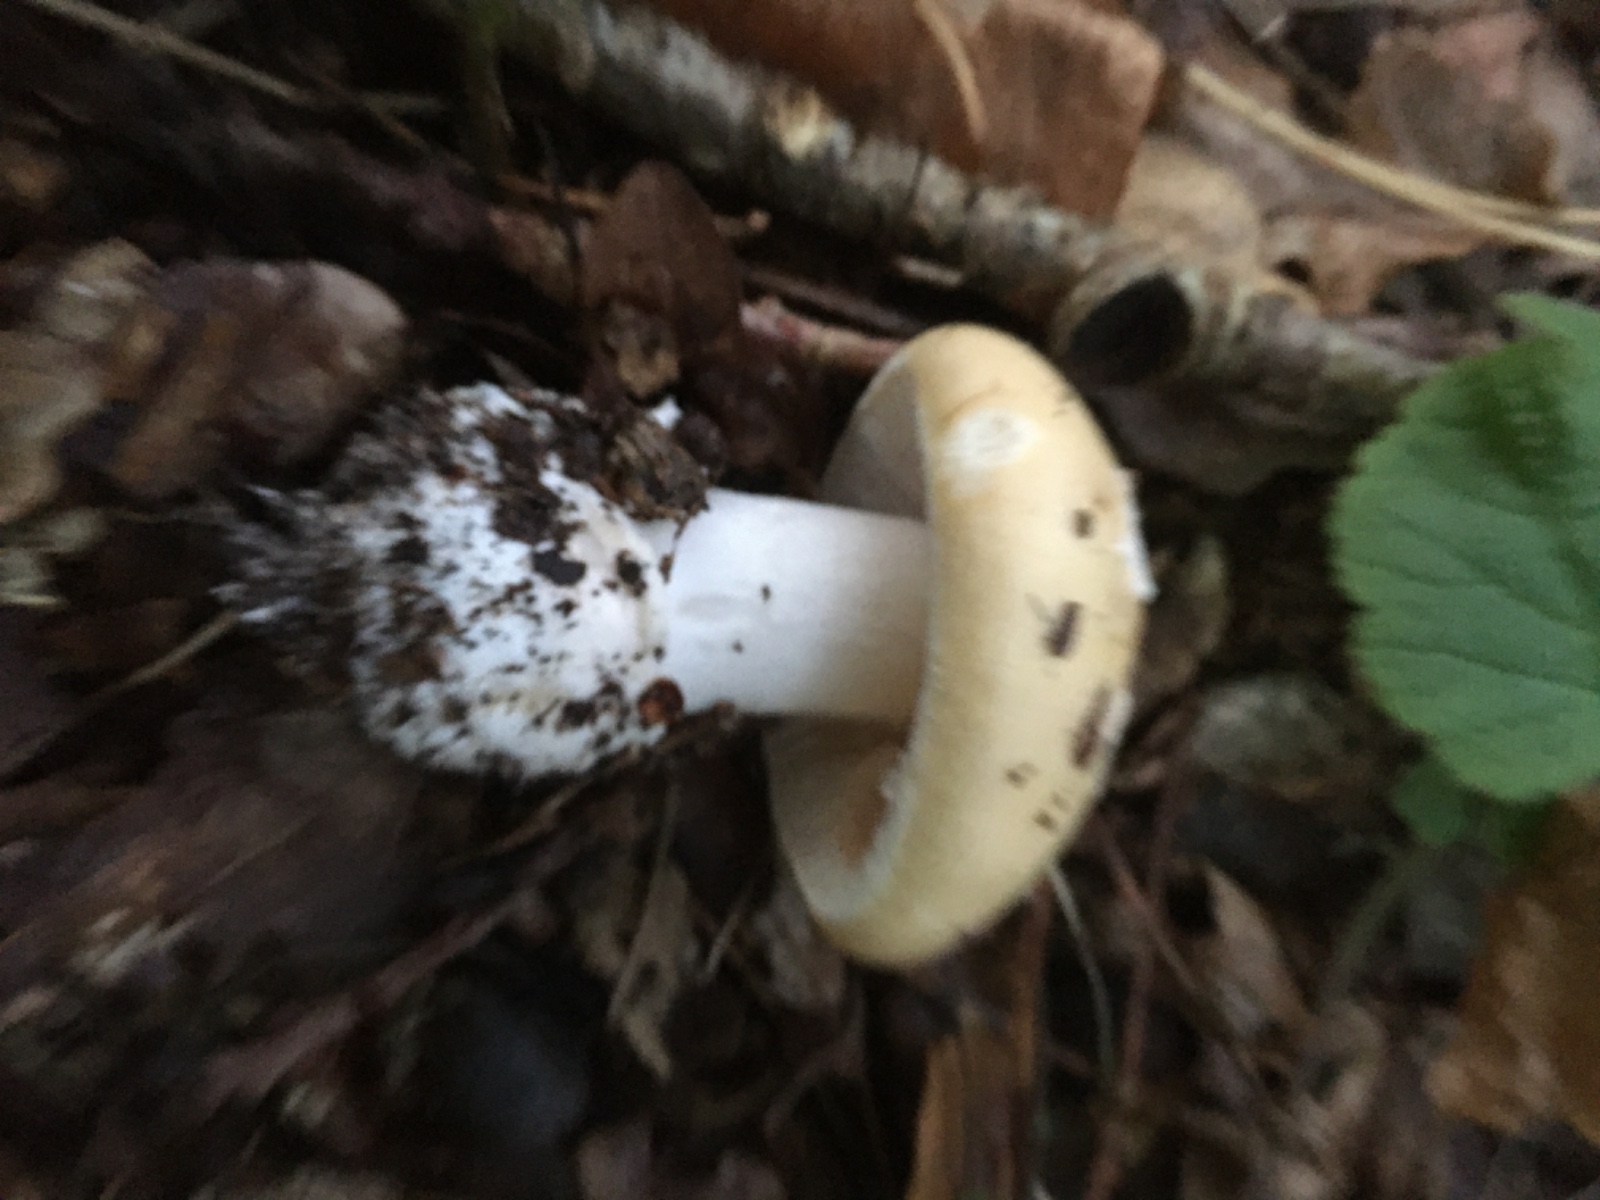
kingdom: Fungi
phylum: Basidiomycota
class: Agaricomycetes
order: Agaricales
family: Amanitaceae
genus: Amanita
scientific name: Amanita gemmata
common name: okkergul fluesvamp
